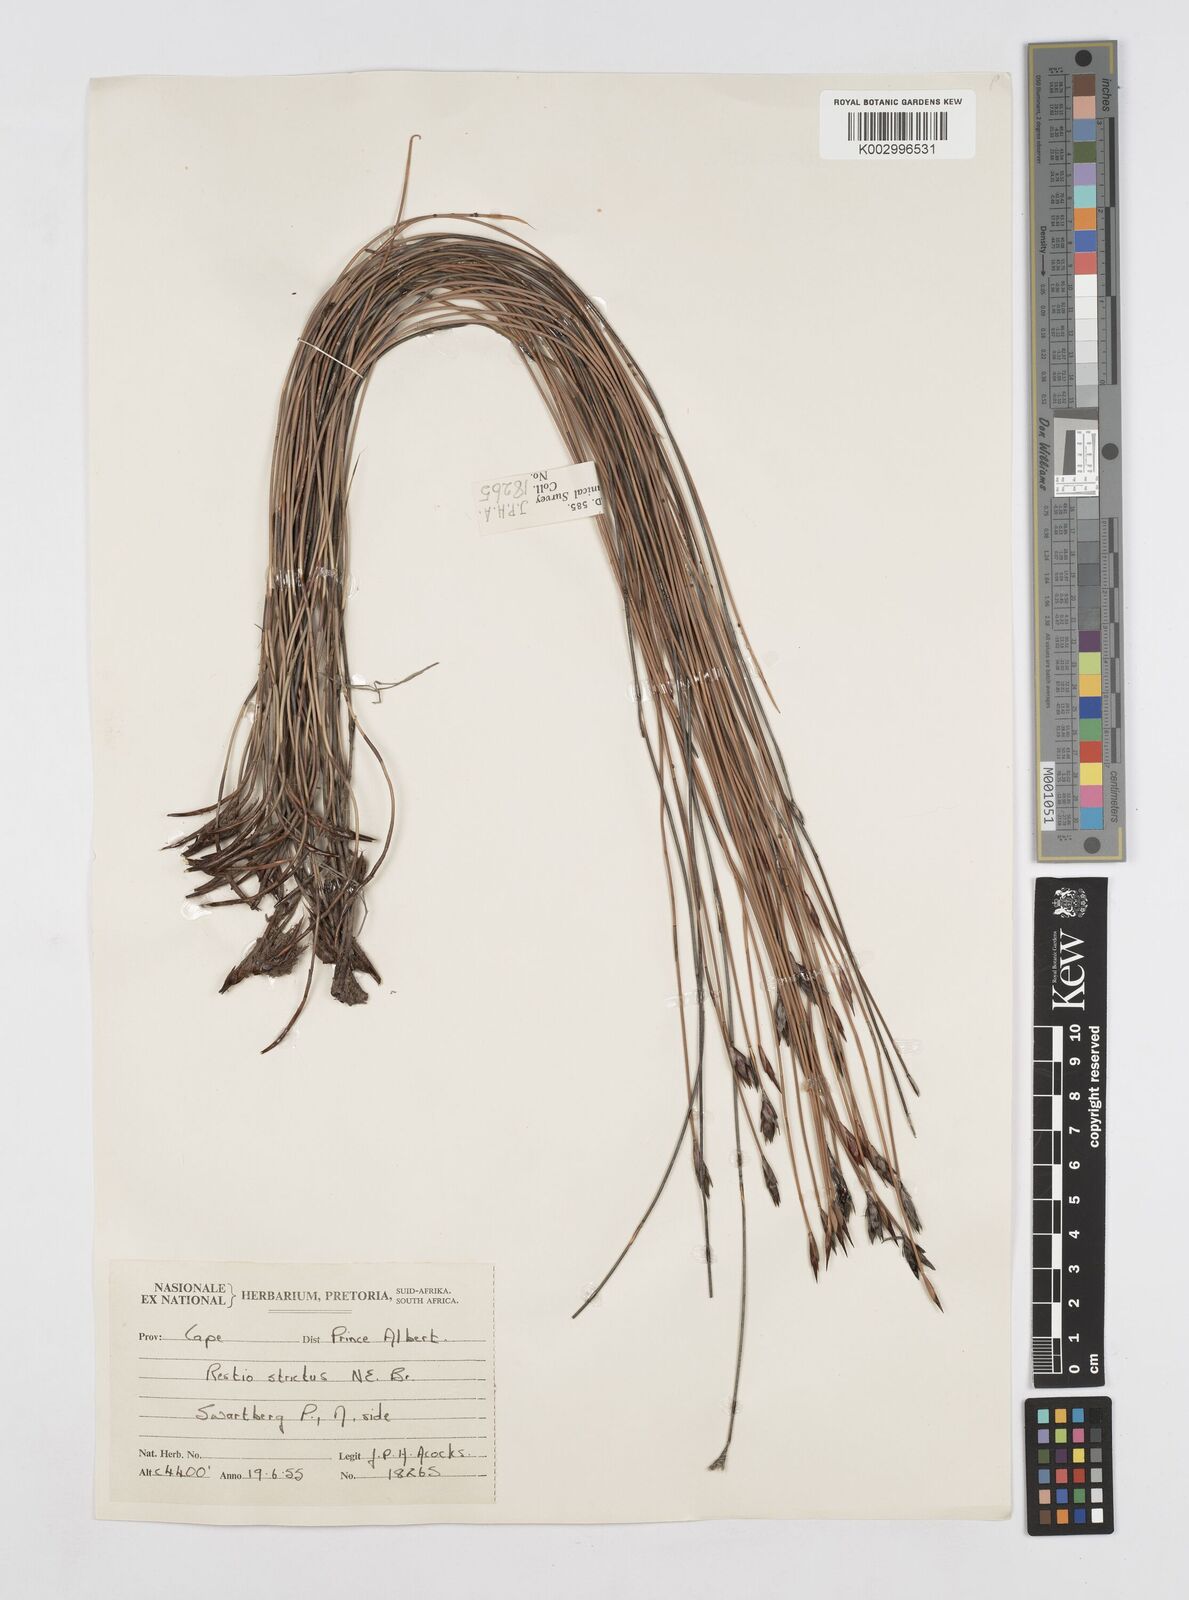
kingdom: Plantae
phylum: Tracheophyta
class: Liliopsida
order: Poales
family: Restionaceae
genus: Hypodiscus
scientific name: Hypodiscus striatus
